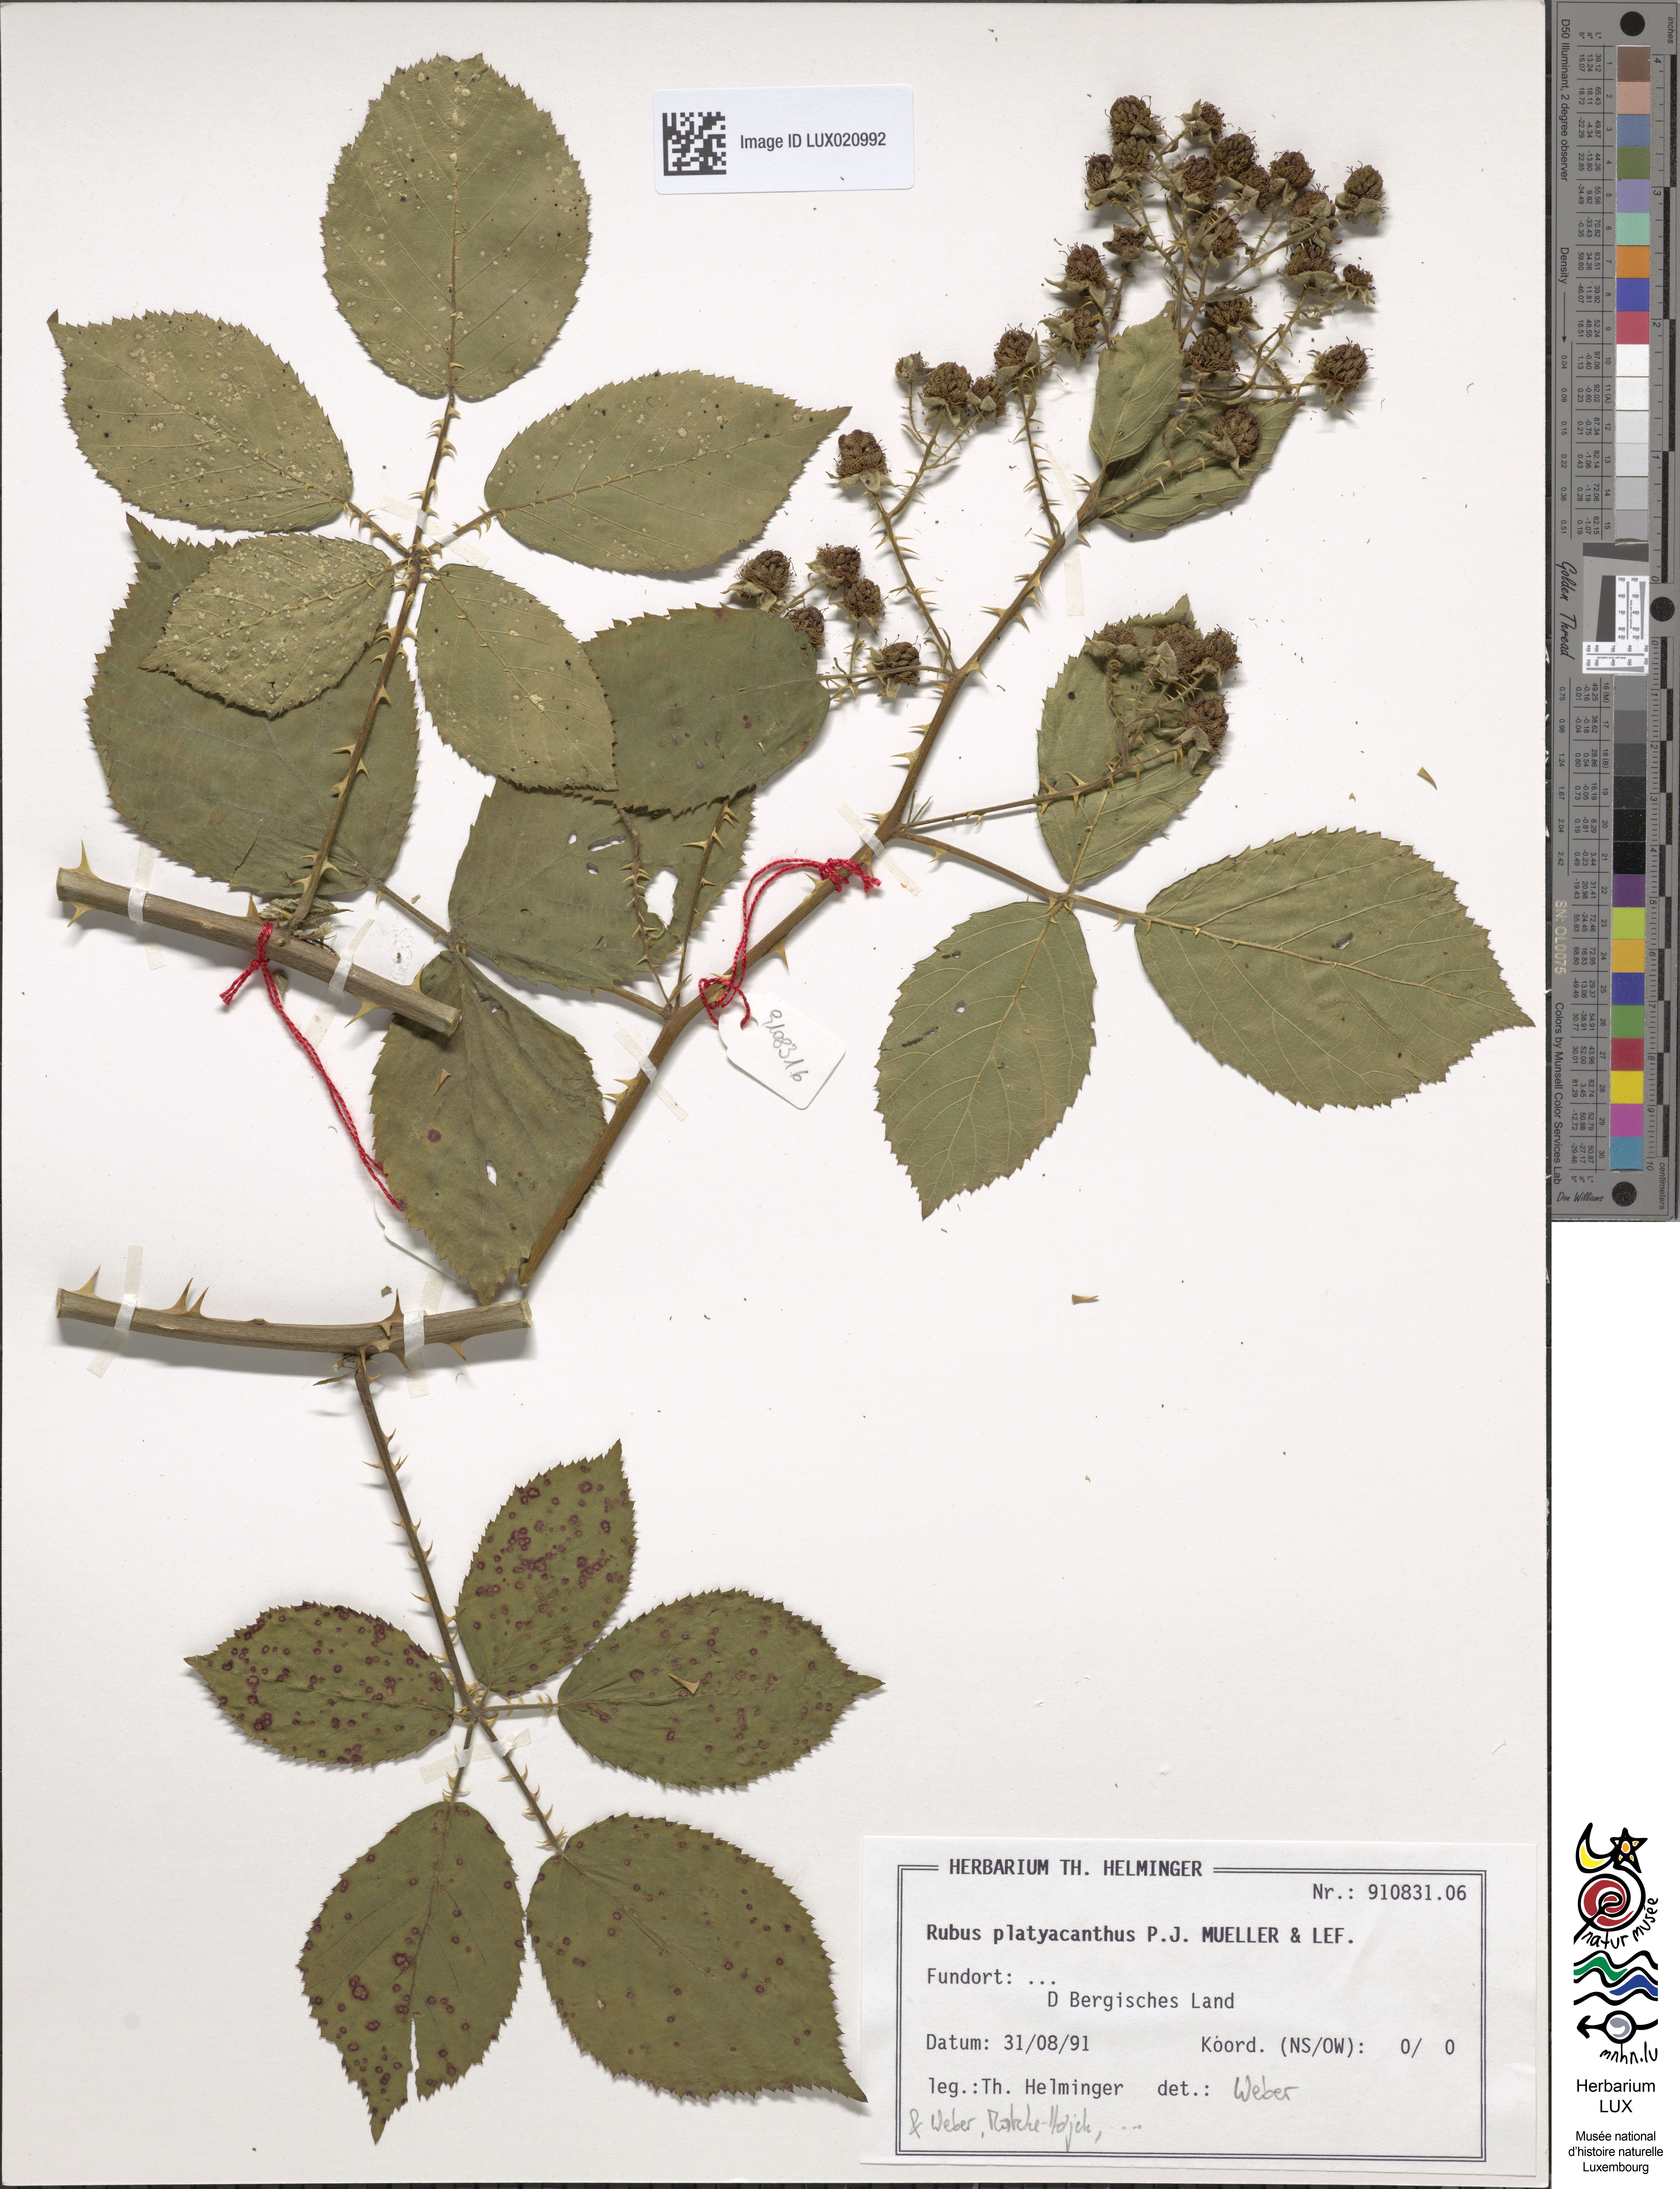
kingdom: Plantae
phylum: Tracheophyta
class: Magnoliopsida
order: Rosales
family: Rosaceae
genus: Rubus
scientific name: Rubus platyacanthus
